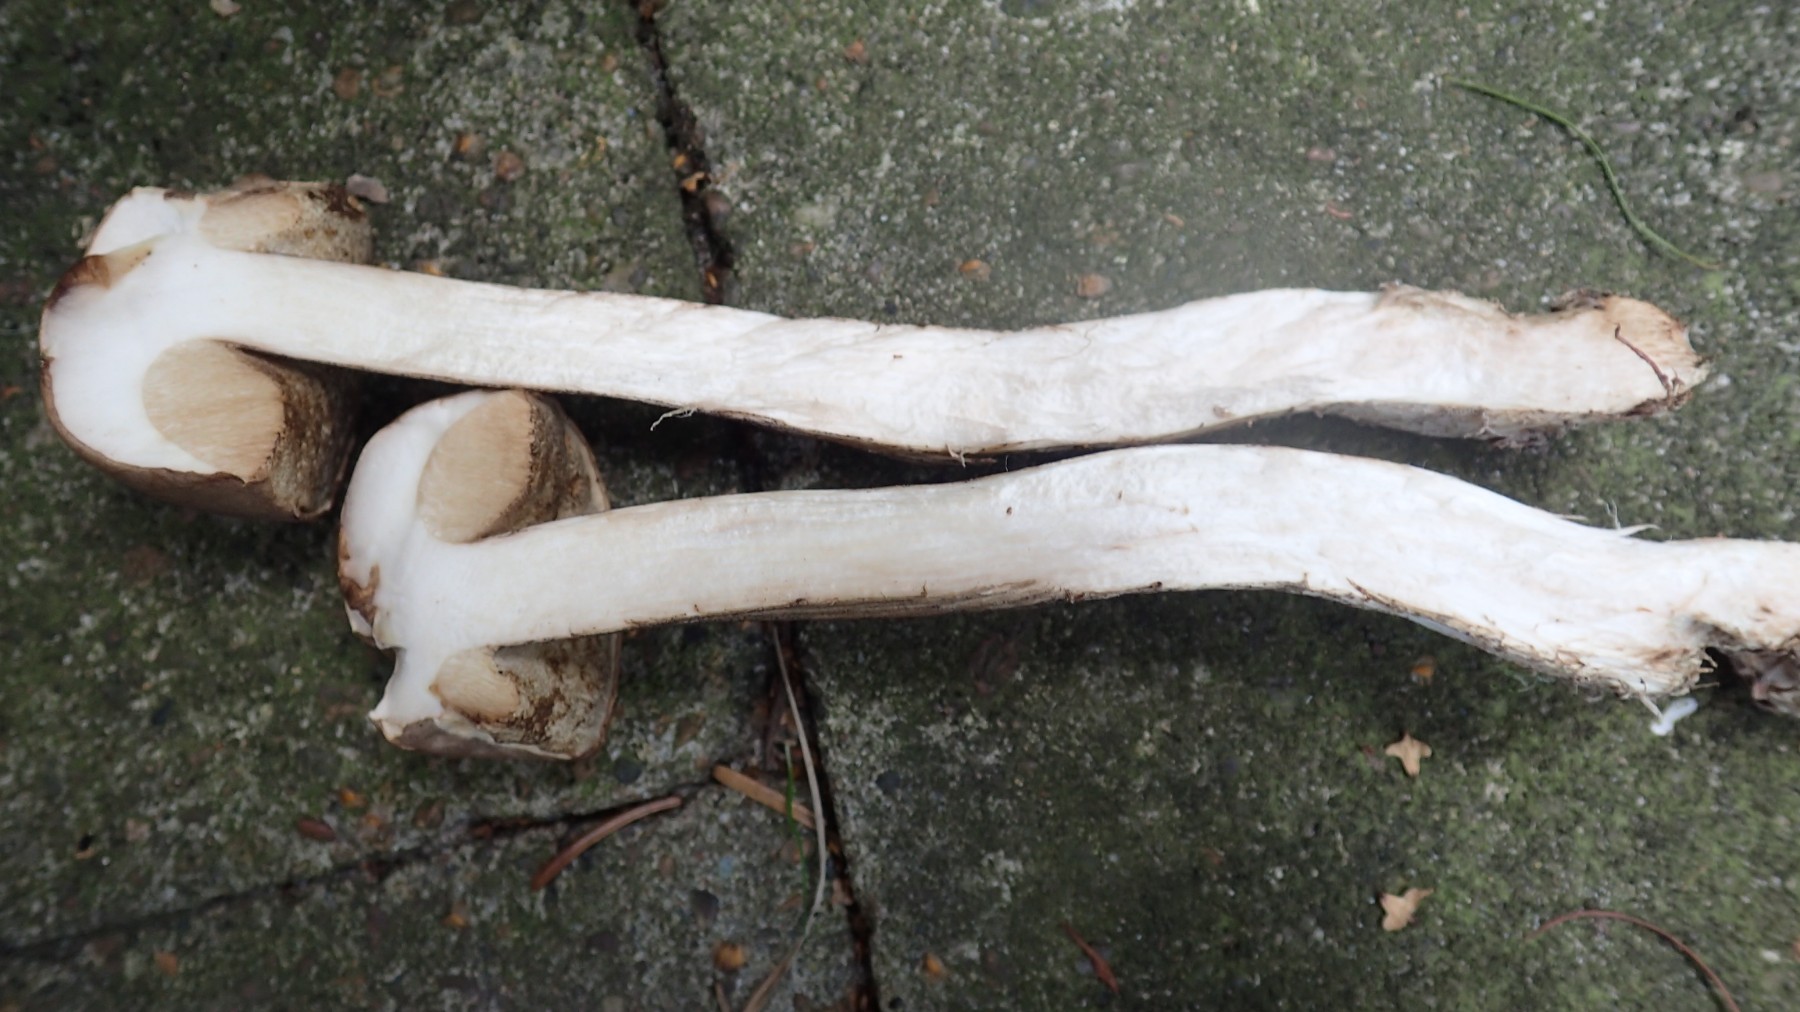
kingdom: Fungi
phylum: Basidiomycota
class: Agaricomycetes
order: Boletales
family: Boletaceae
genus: Leccinum
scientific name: Leccinum scabrum
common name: brun skælrørhat
